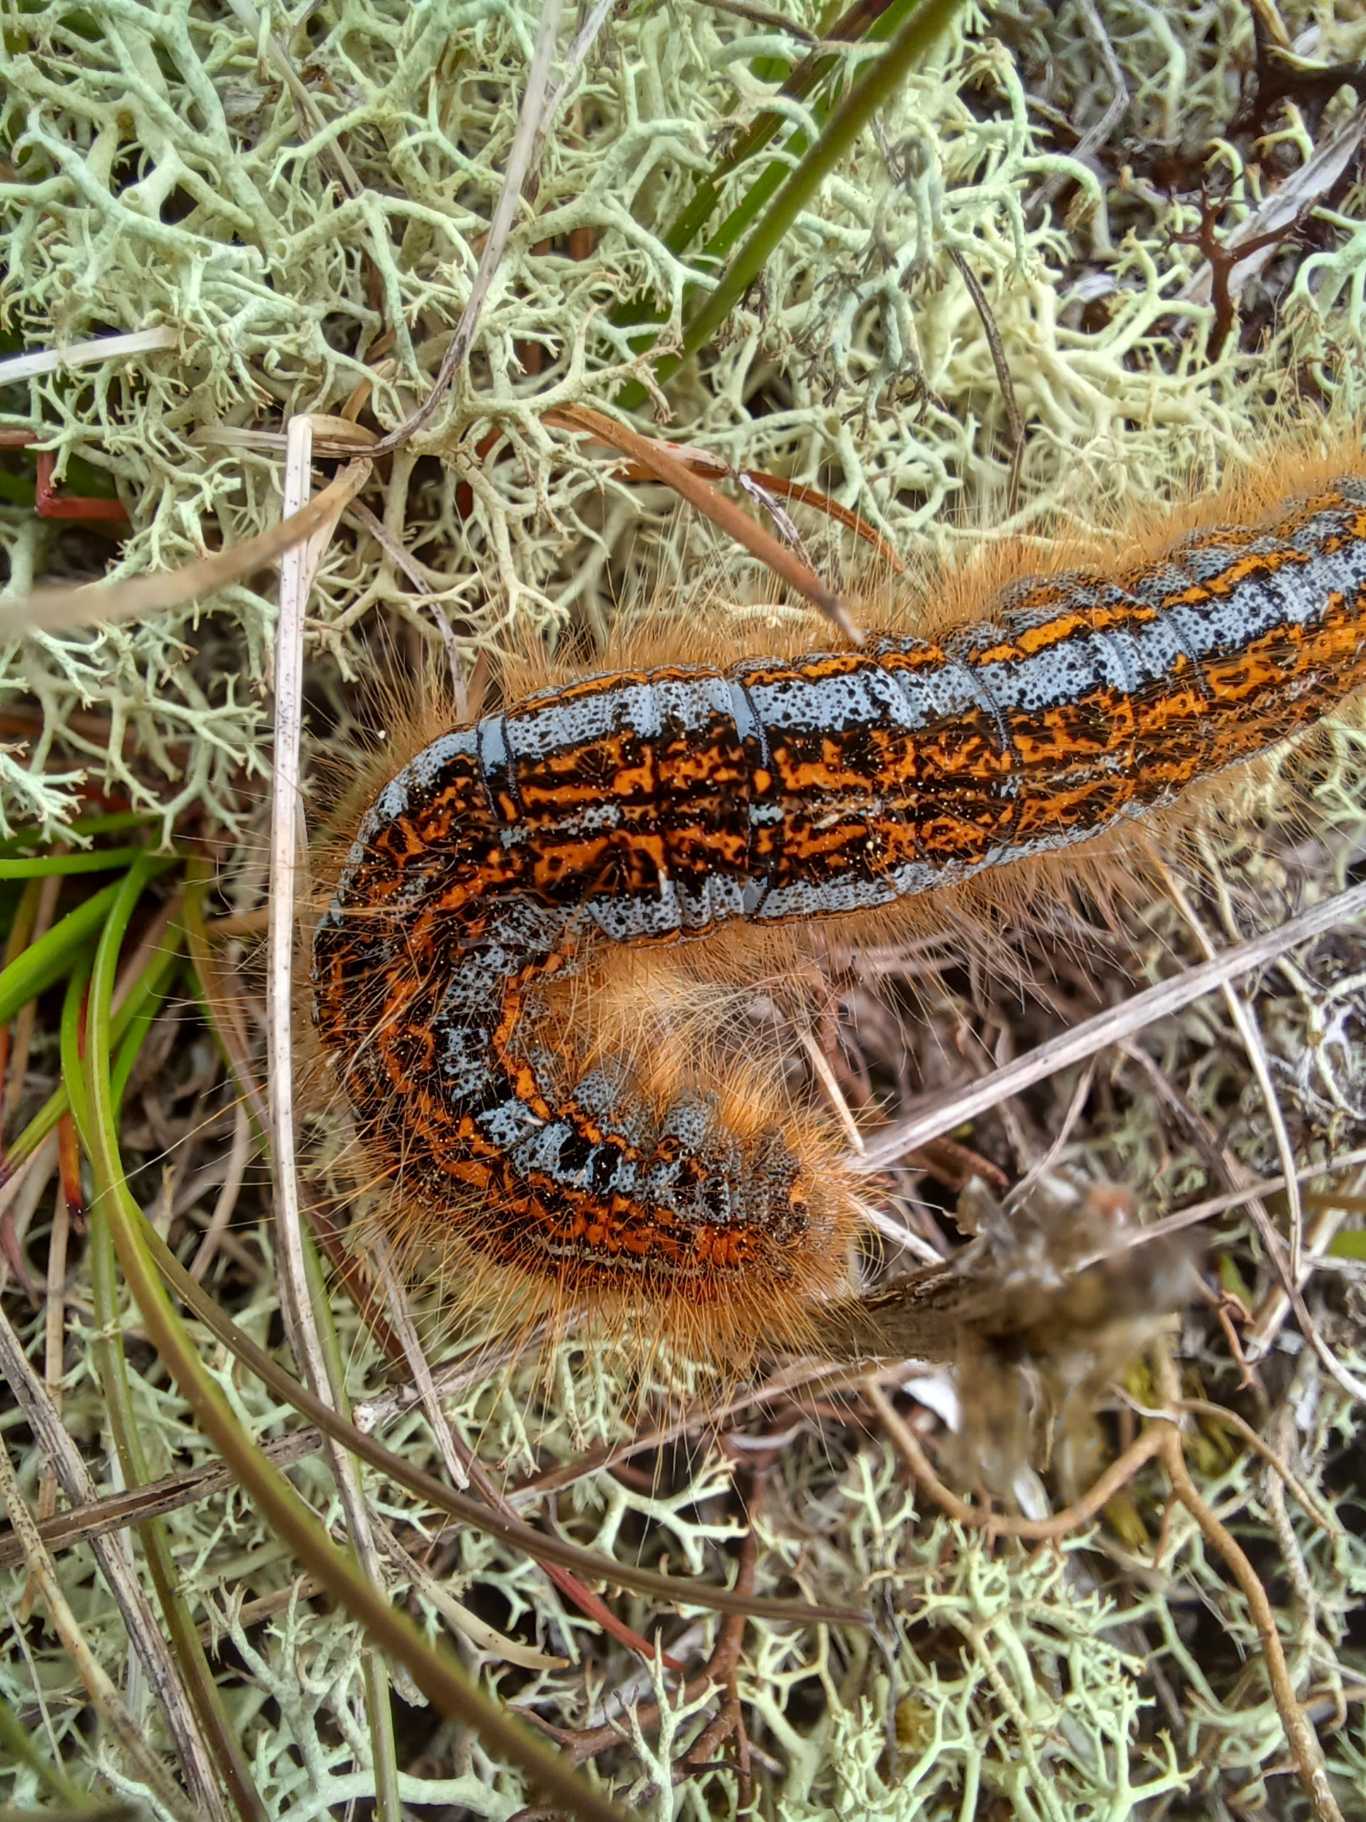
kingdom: Animalia
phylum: Arthropoda
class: Insecta
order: Lepidoptera
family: Lasiocampidae
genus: Malacosoma
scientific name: Malacosoma castrensis
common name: Redespinder
